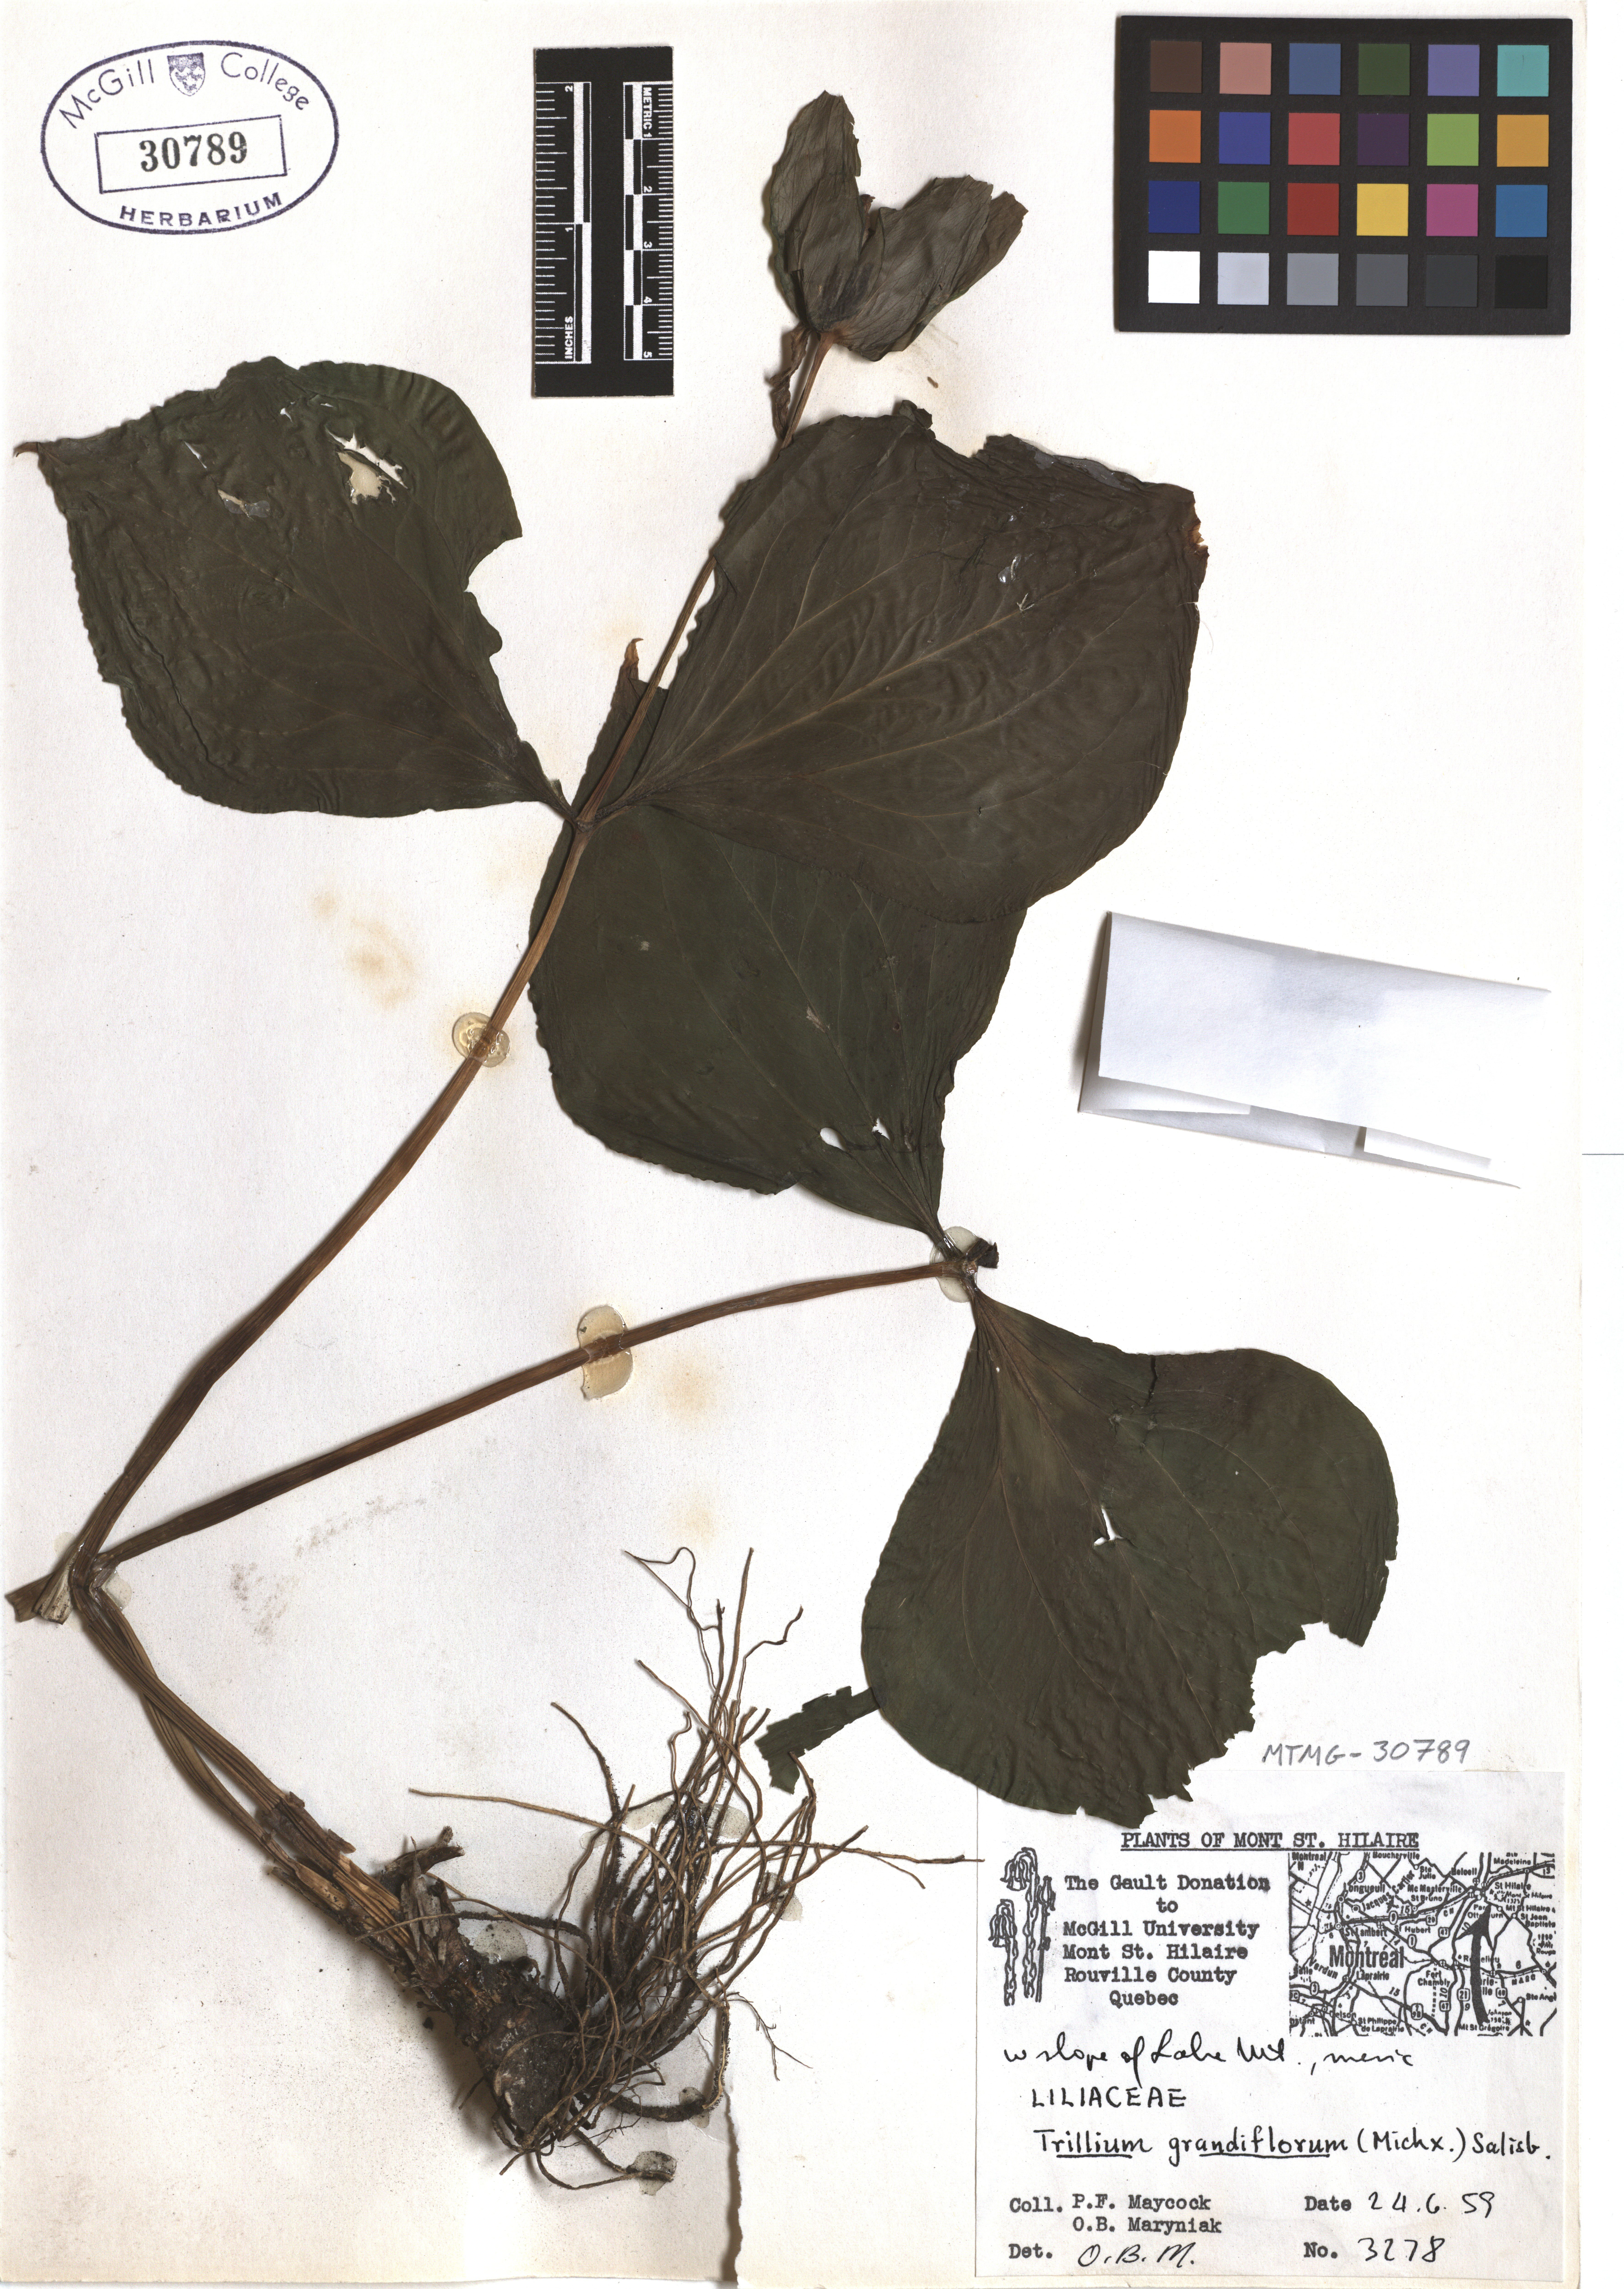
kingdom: Plantae
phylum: Tracheophyta
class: Liliopsida
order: Liliales
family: Melanthiaceae
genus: Trillium
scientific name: Trillium grandiflorum
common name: Great white trillium
